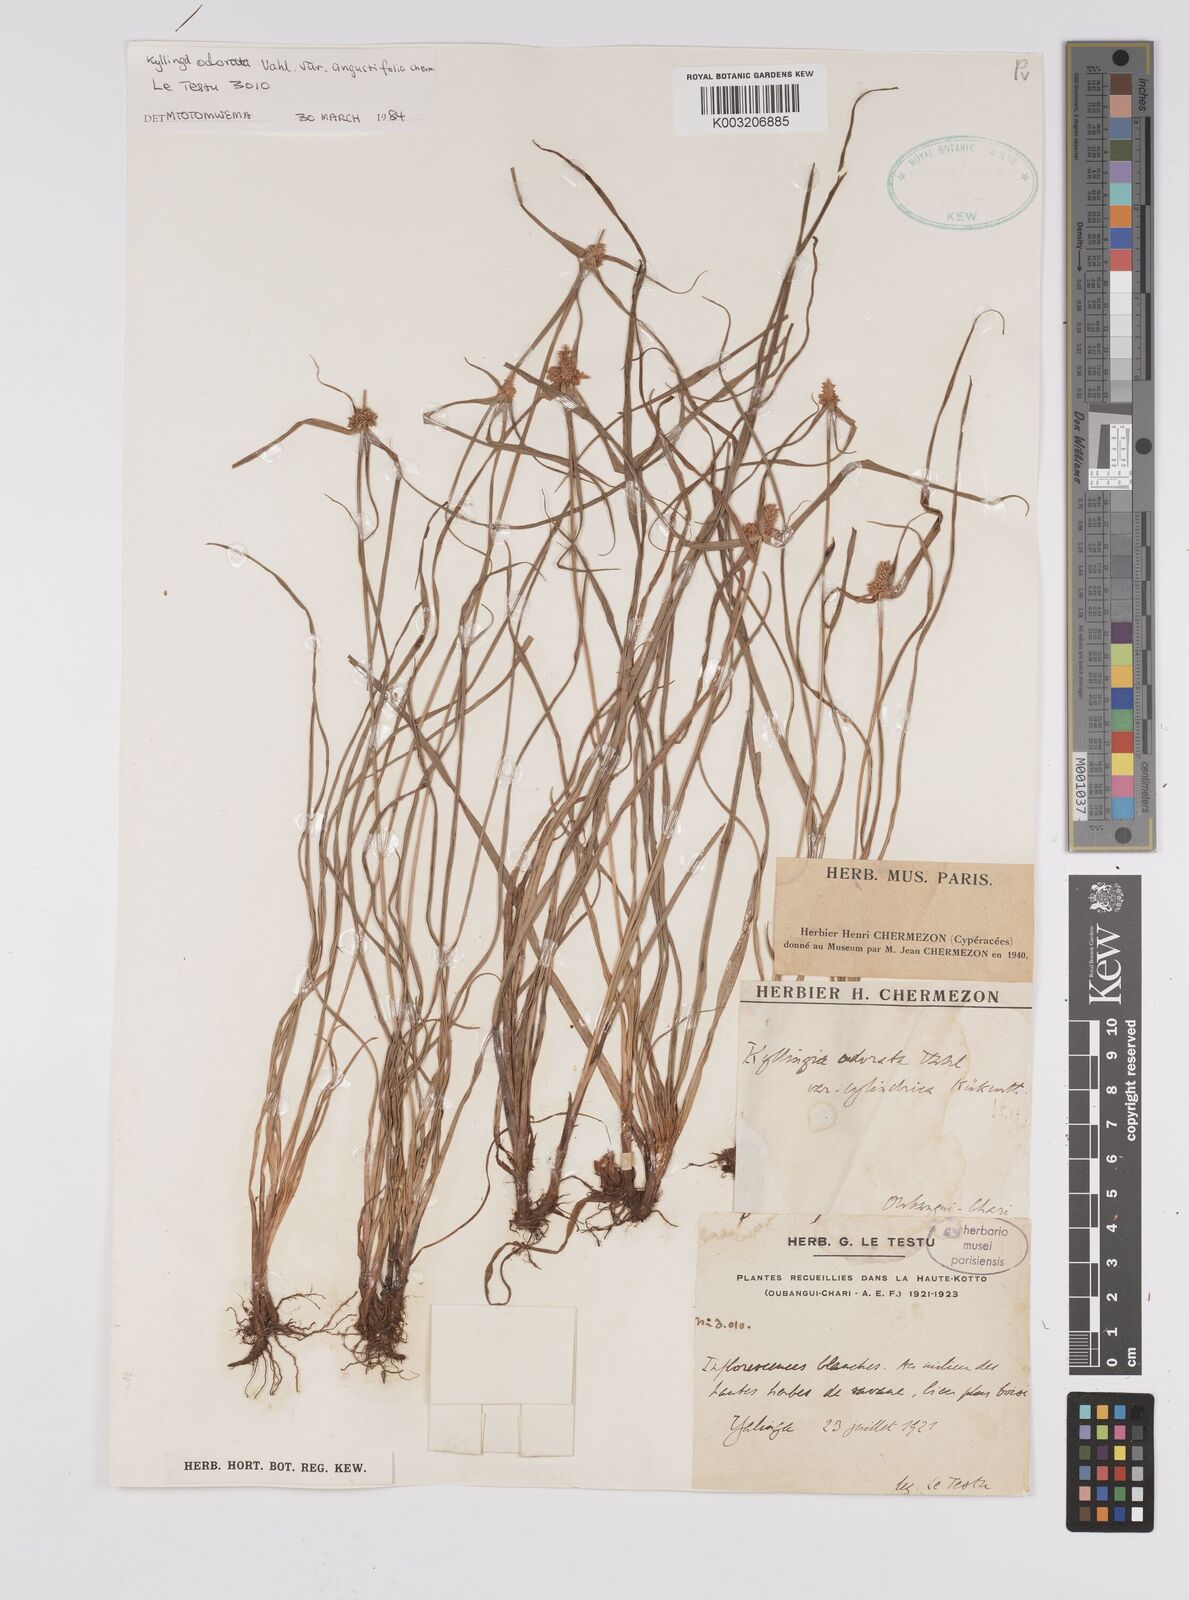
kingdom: Plantae
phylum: Tracheophyta
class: Liliopsida
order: Poales
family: Cyperaceae
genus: Cyperus
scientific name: Cyperus odoratus
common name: Fragrant flatsedge
